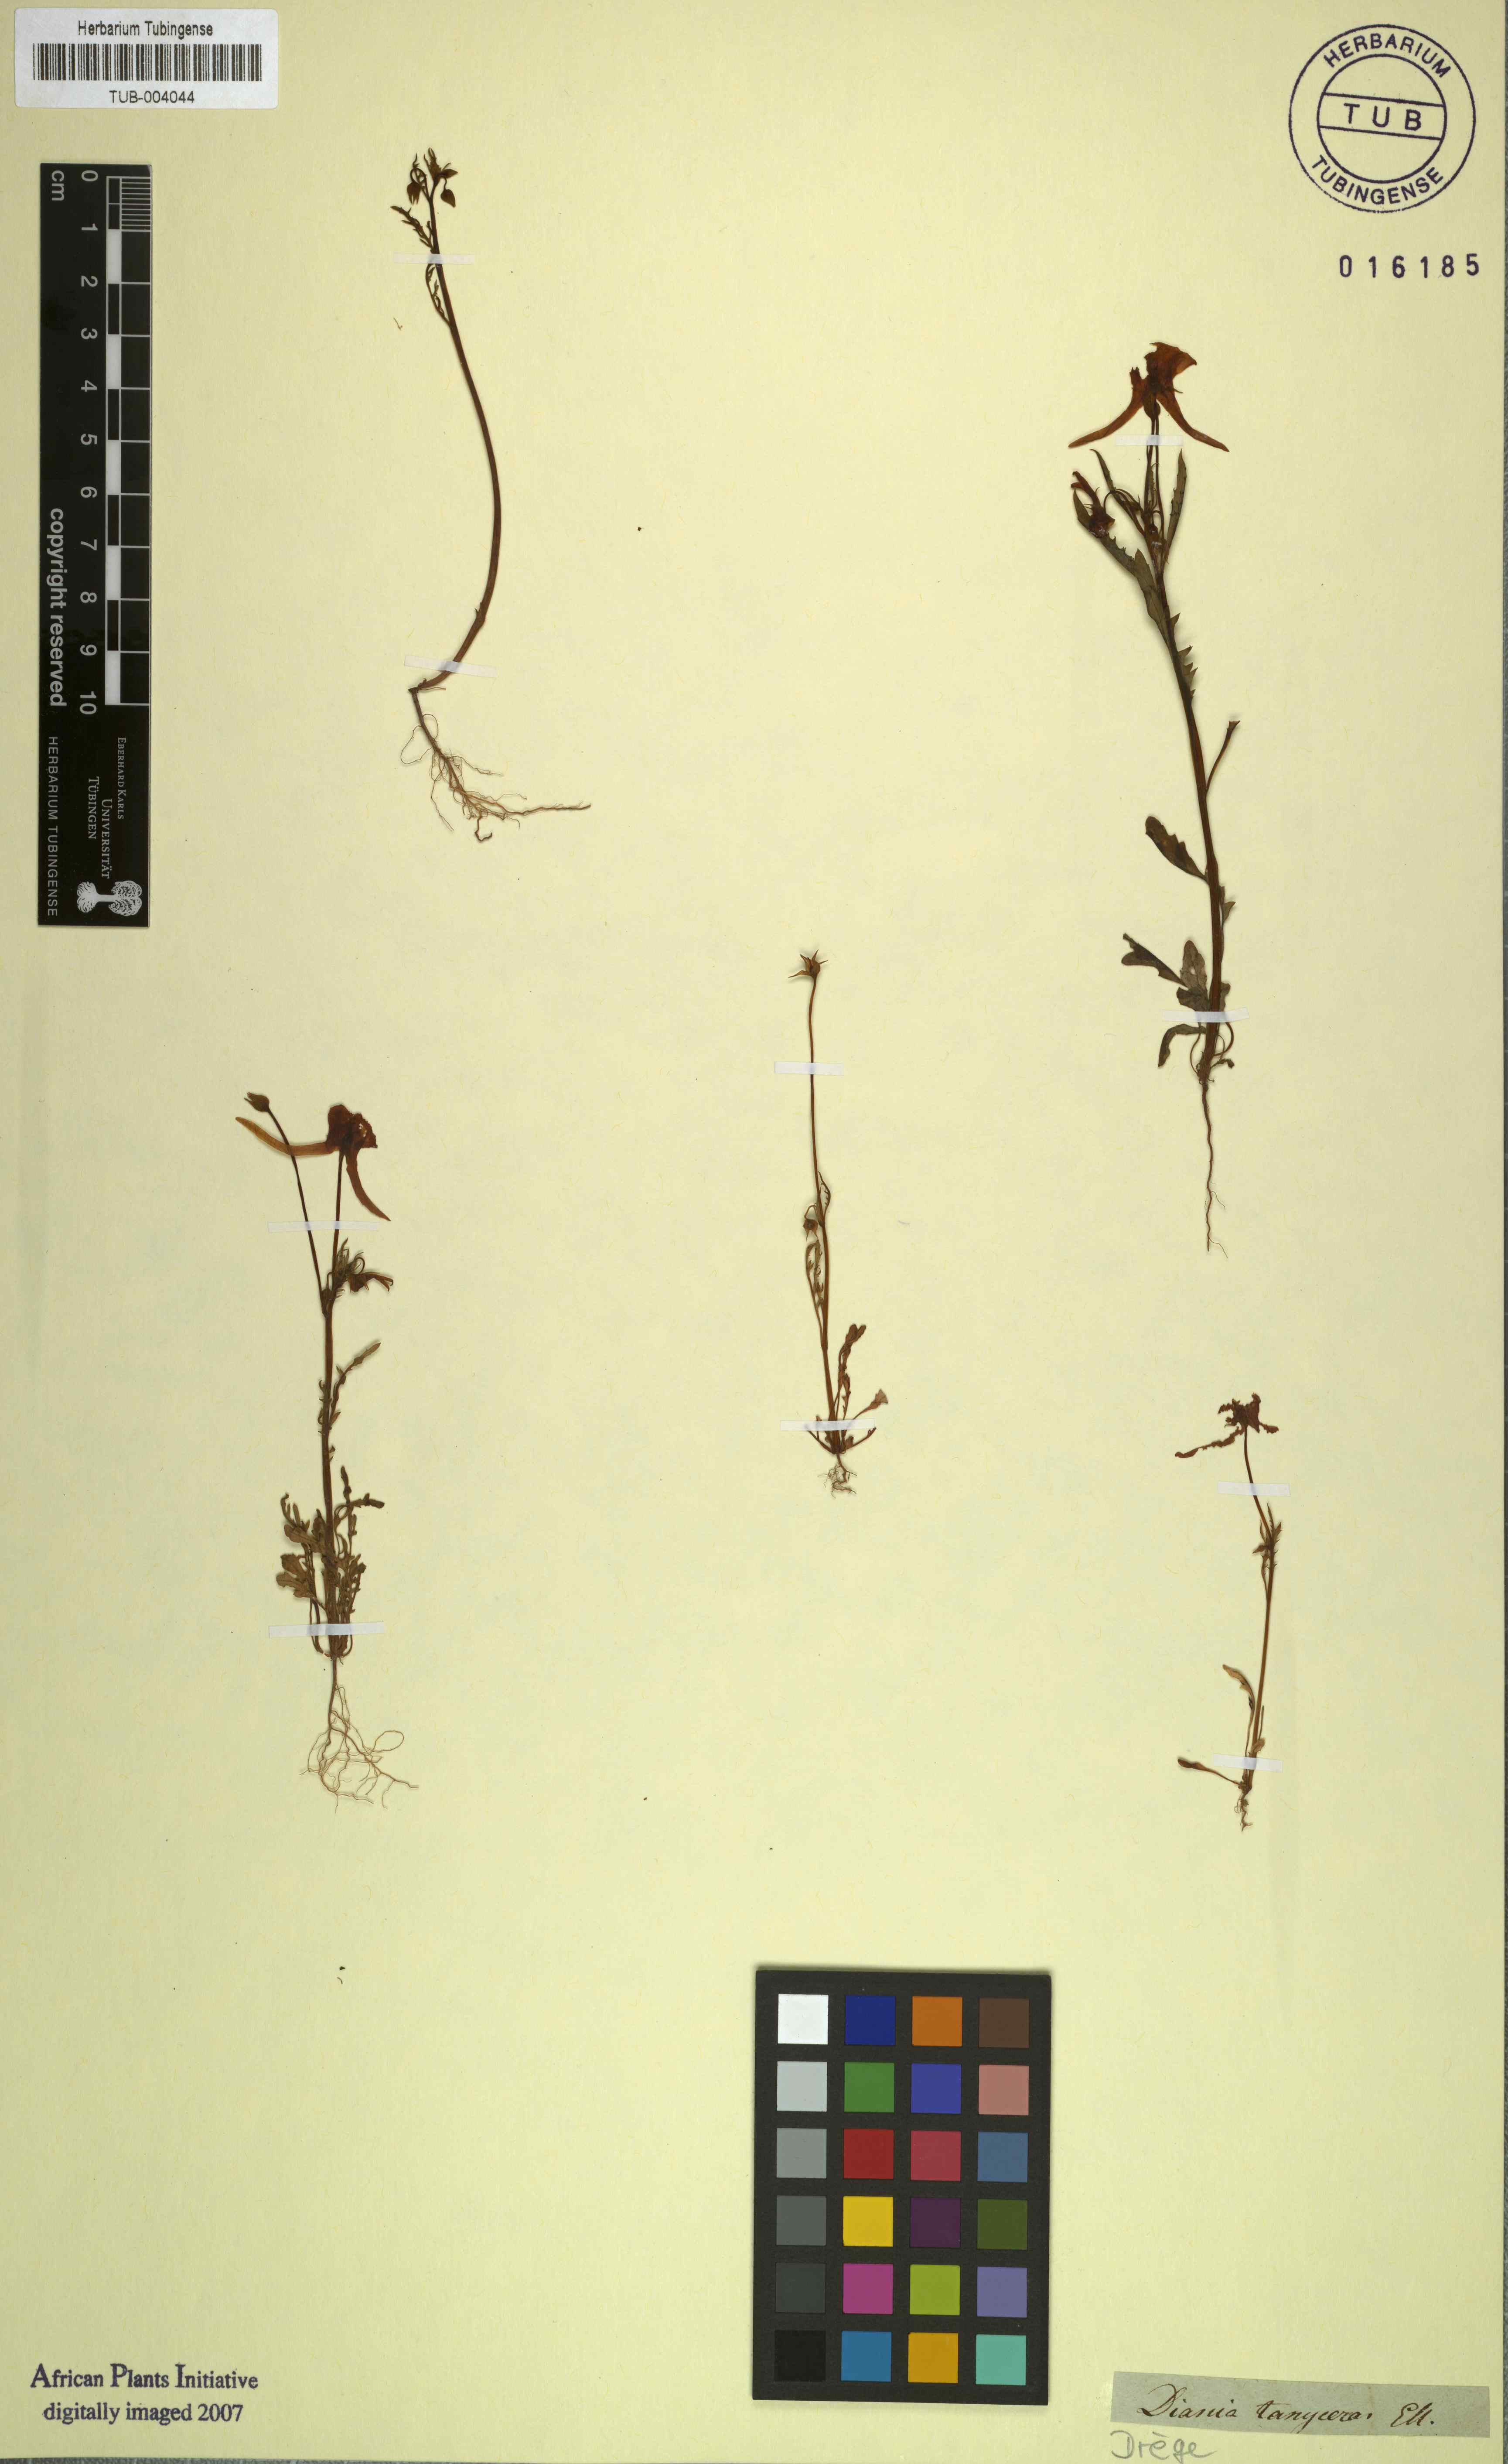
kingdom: Plantae
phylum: Tracheophyta
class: Magnoliopsida
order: Lamiales
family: Scrophulariaceae
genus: Diascia
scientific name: Diascia tanyceras
